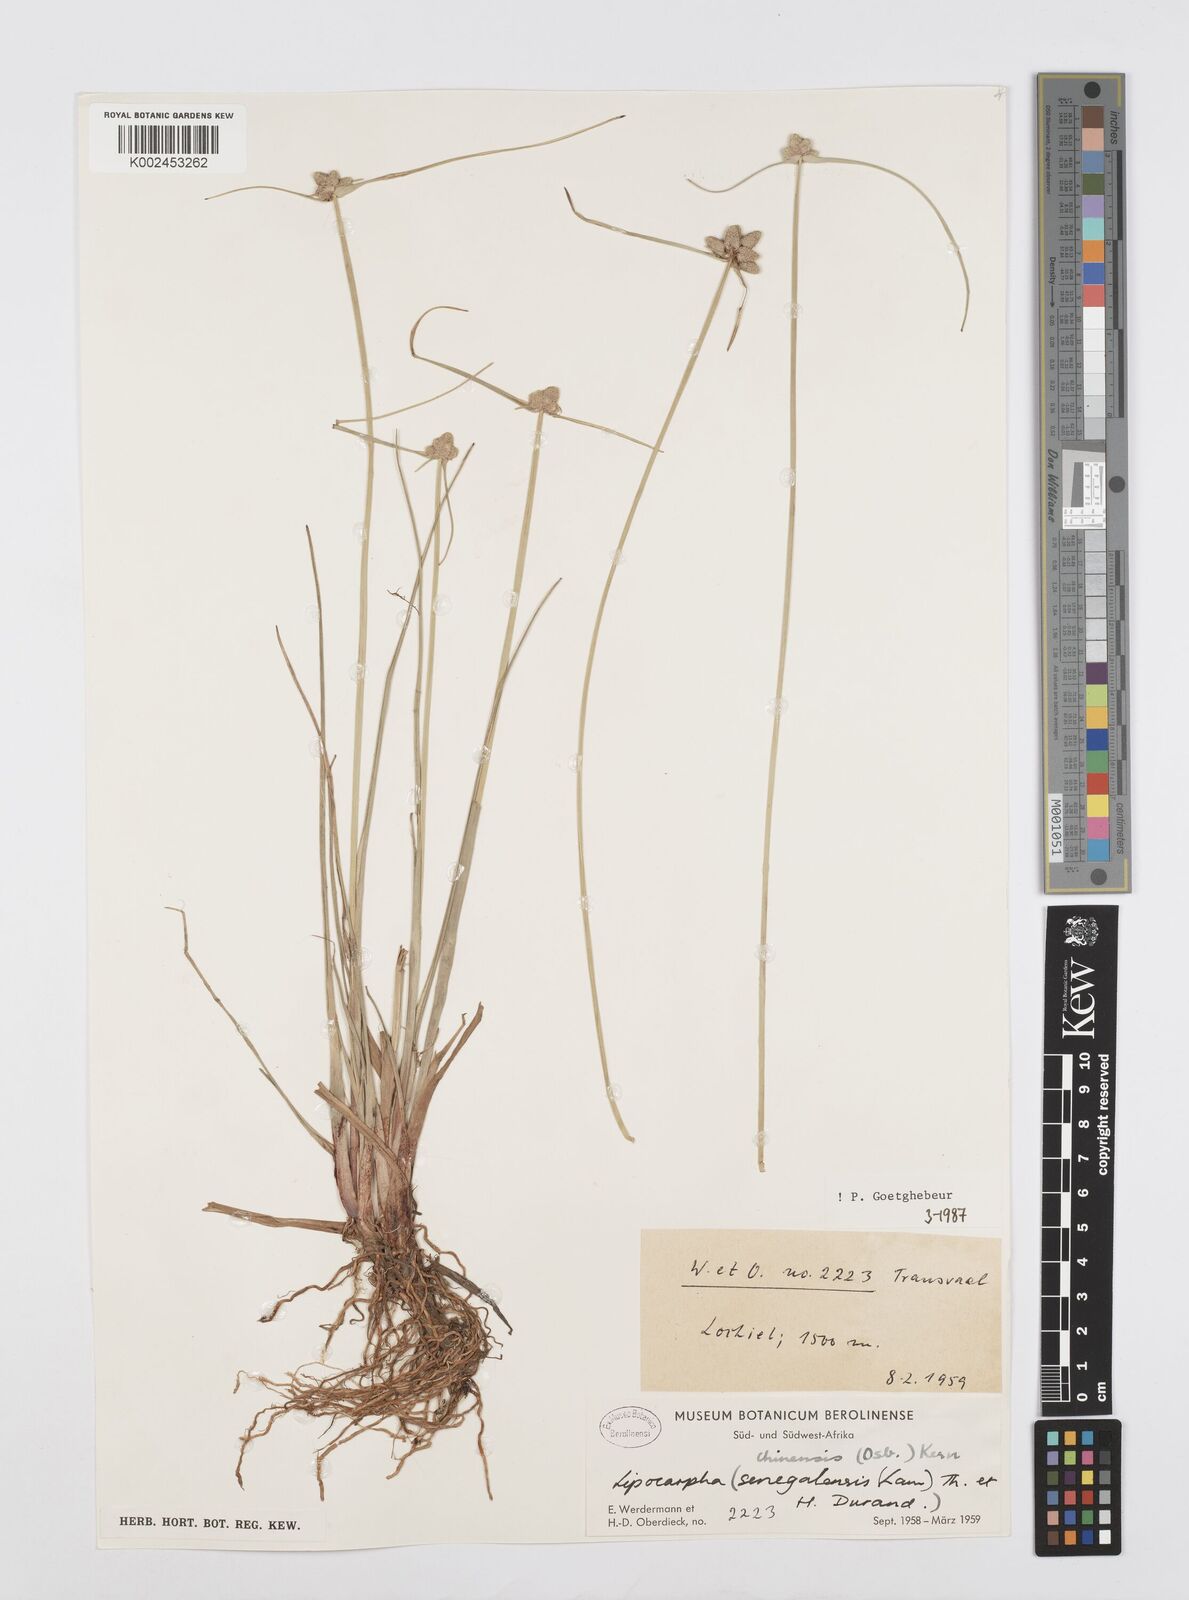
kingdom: Plantae
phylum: Tracheophyta
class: Liliopsida
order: Poales
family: Cyperaceae
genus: Cyperus
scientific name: Cyperus albescens
